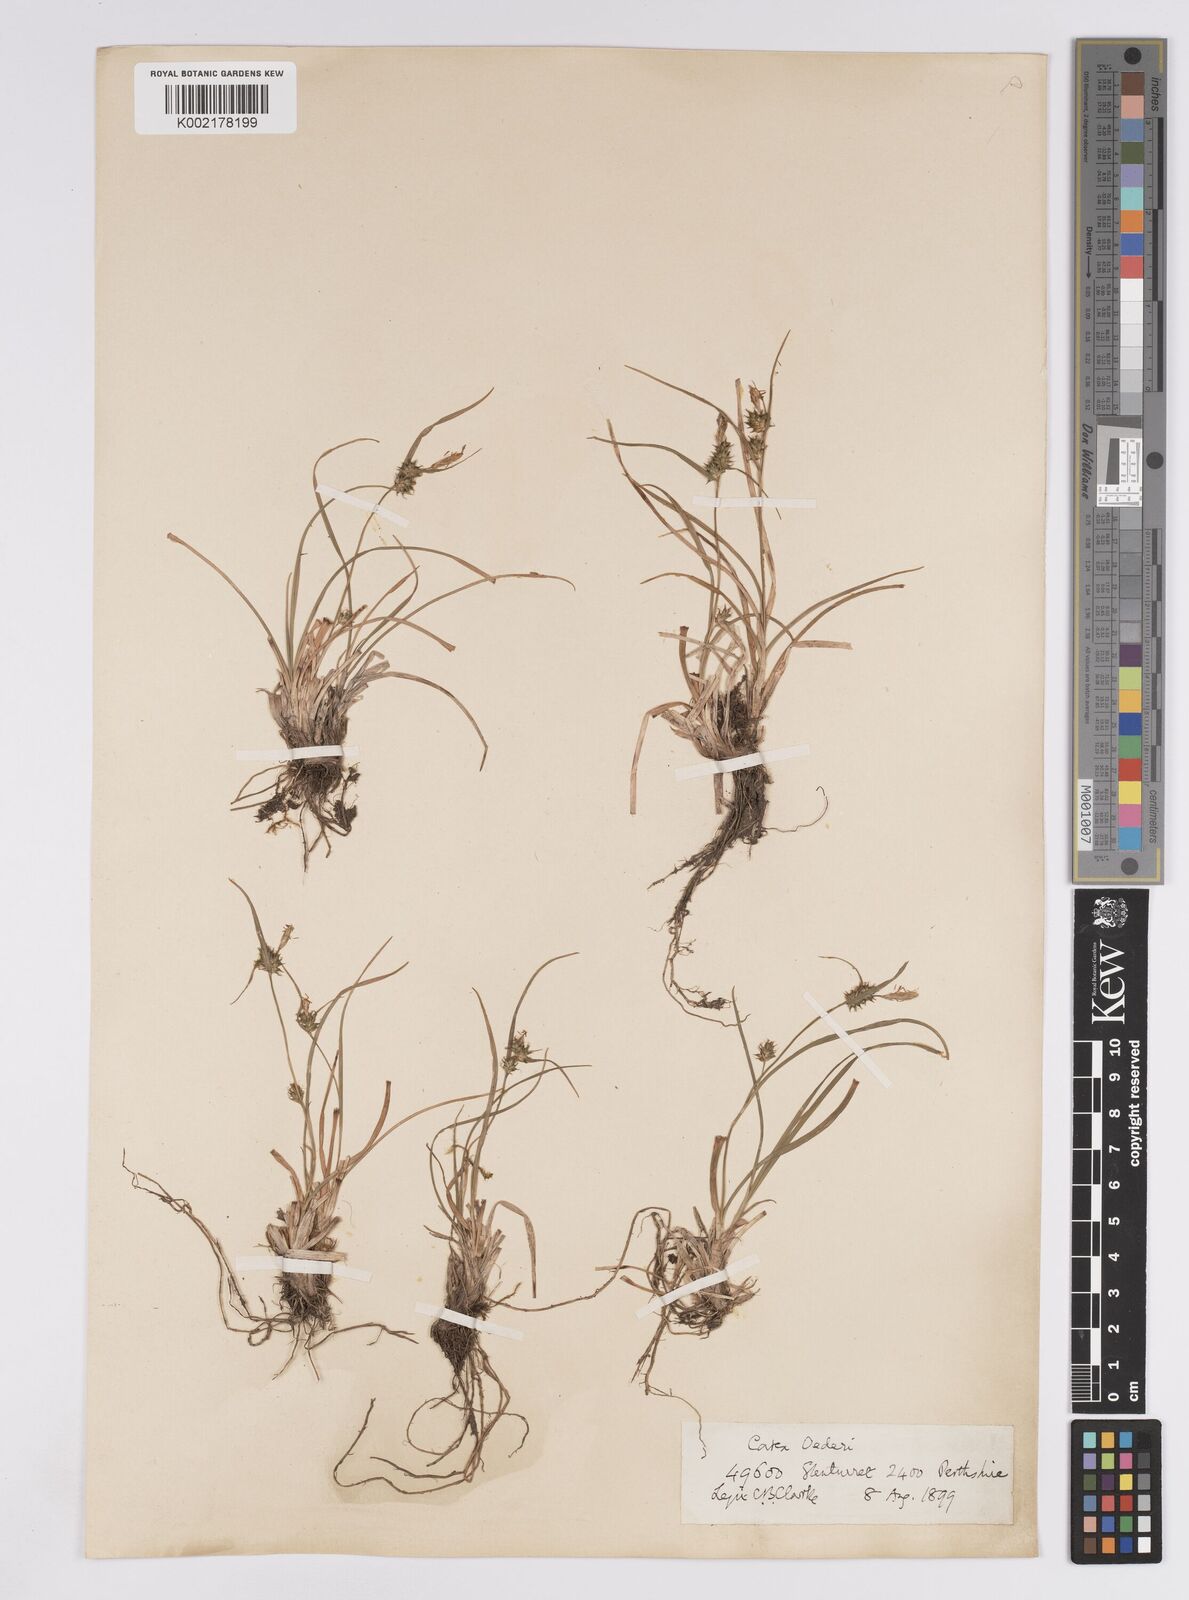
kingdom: Plantae
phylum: Tracheophyta
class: Liliopsida
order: Poales
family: Cyperaceae
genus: Carex
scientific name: Carex demissa
